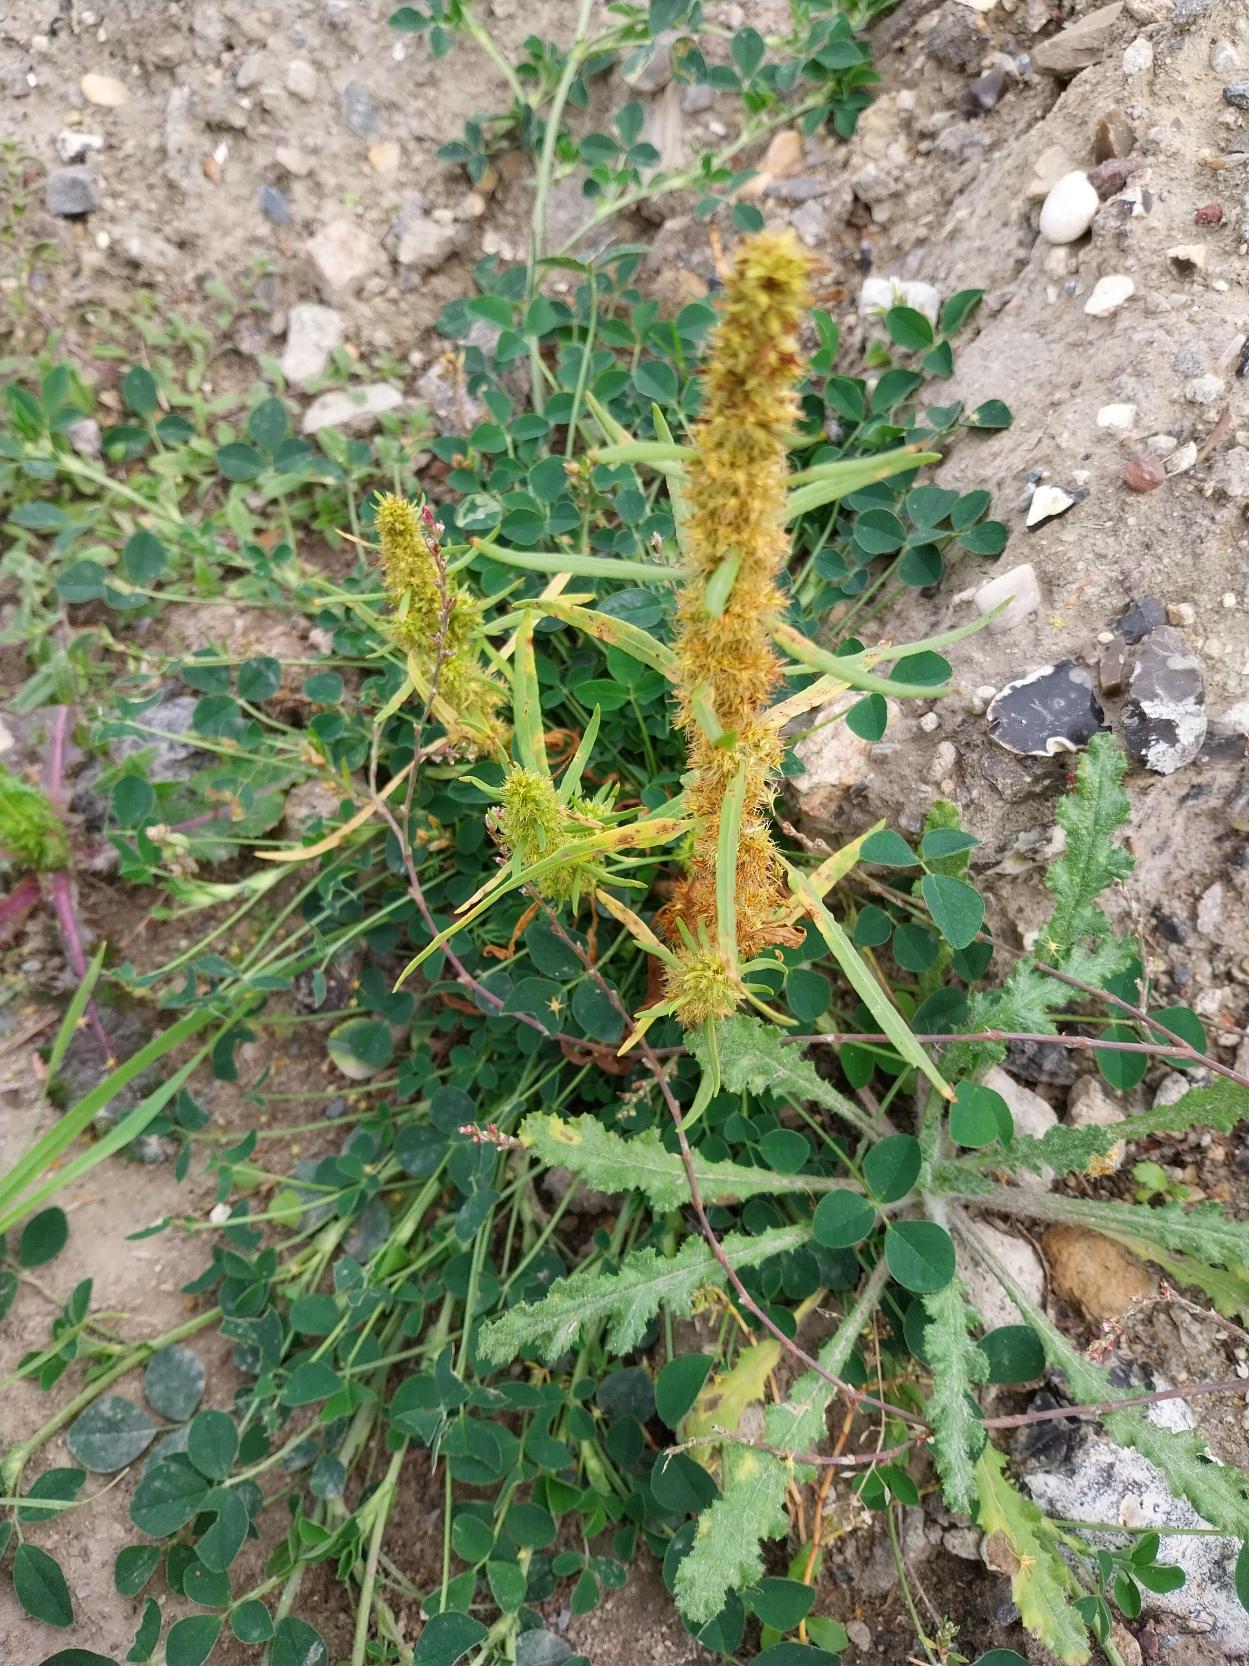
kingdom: Plantae
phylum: Tracheophyta
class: Magnoliopsida
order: Caryophyllales
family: Polygonaceae
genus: Rumex
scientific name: Rumex maritimus
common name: Strand-skræppe
